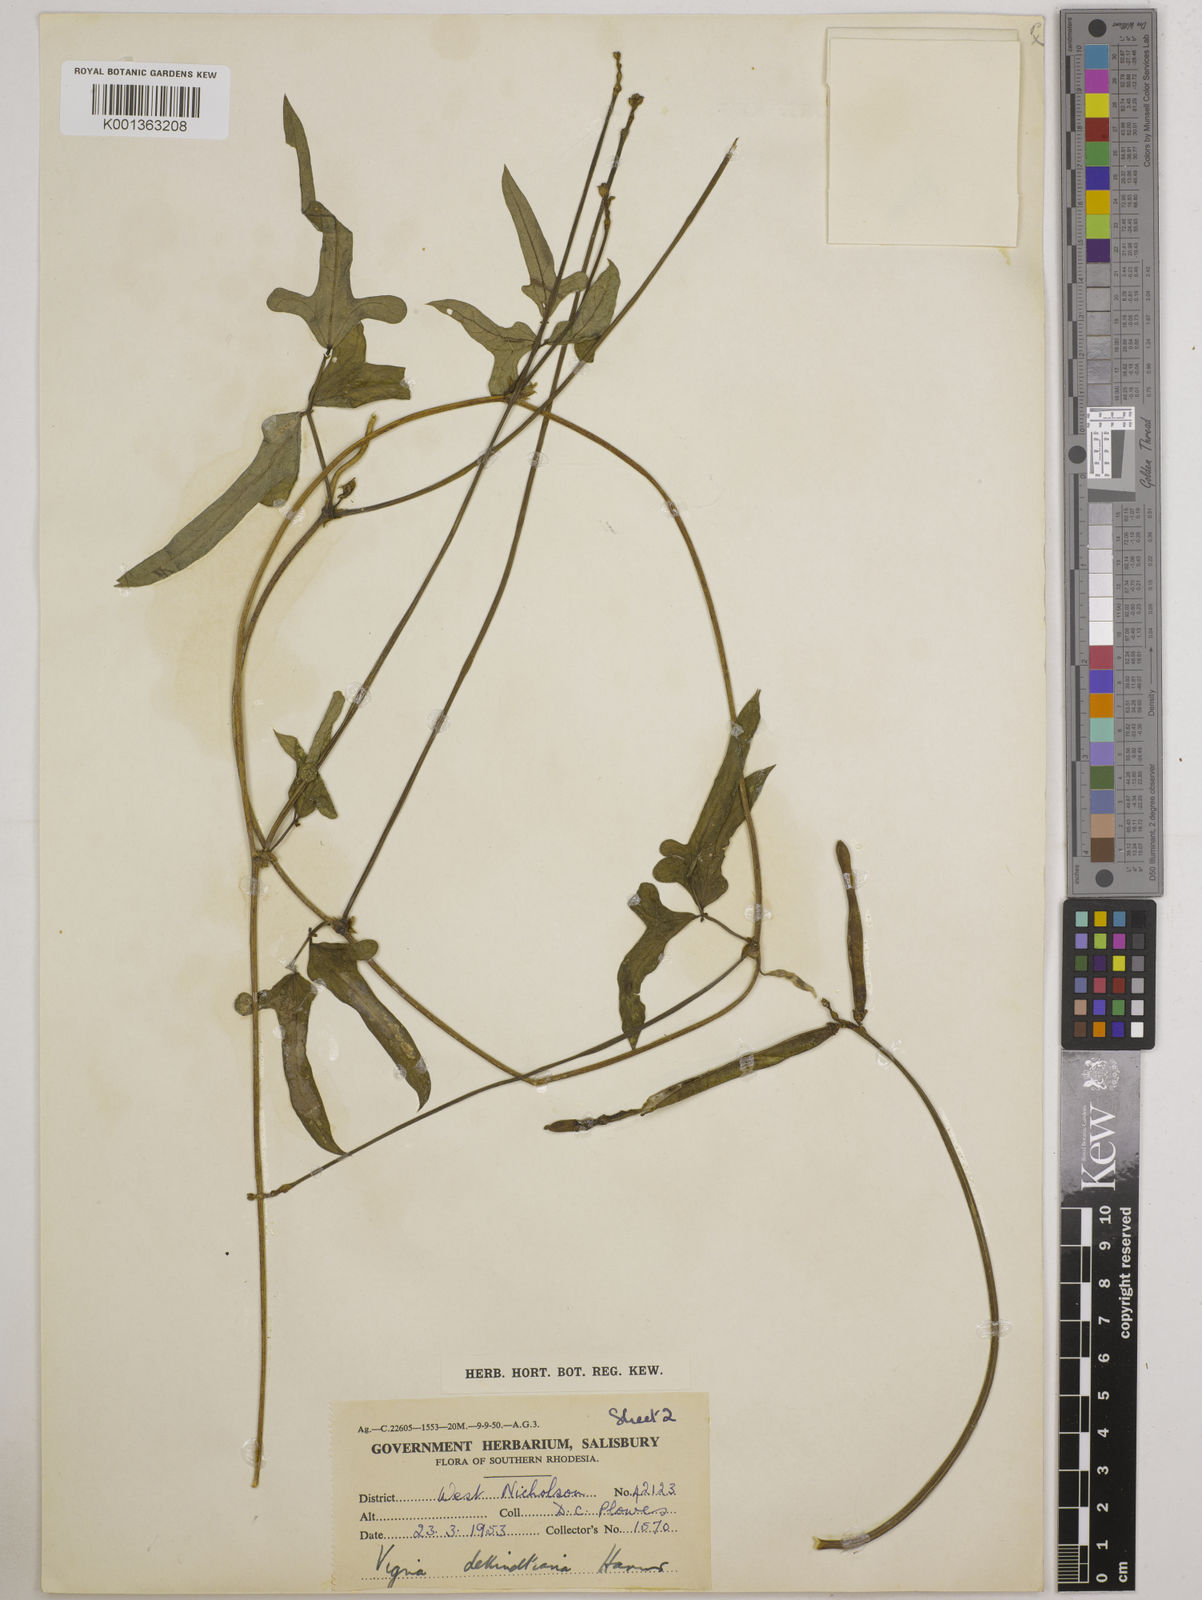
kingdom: Plantae
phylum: Tracheophyta
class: Magnoliopsida
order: Fabales
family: Fabaceae
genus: Vigna
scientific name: Vigna unguiculata
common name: Cowpea
